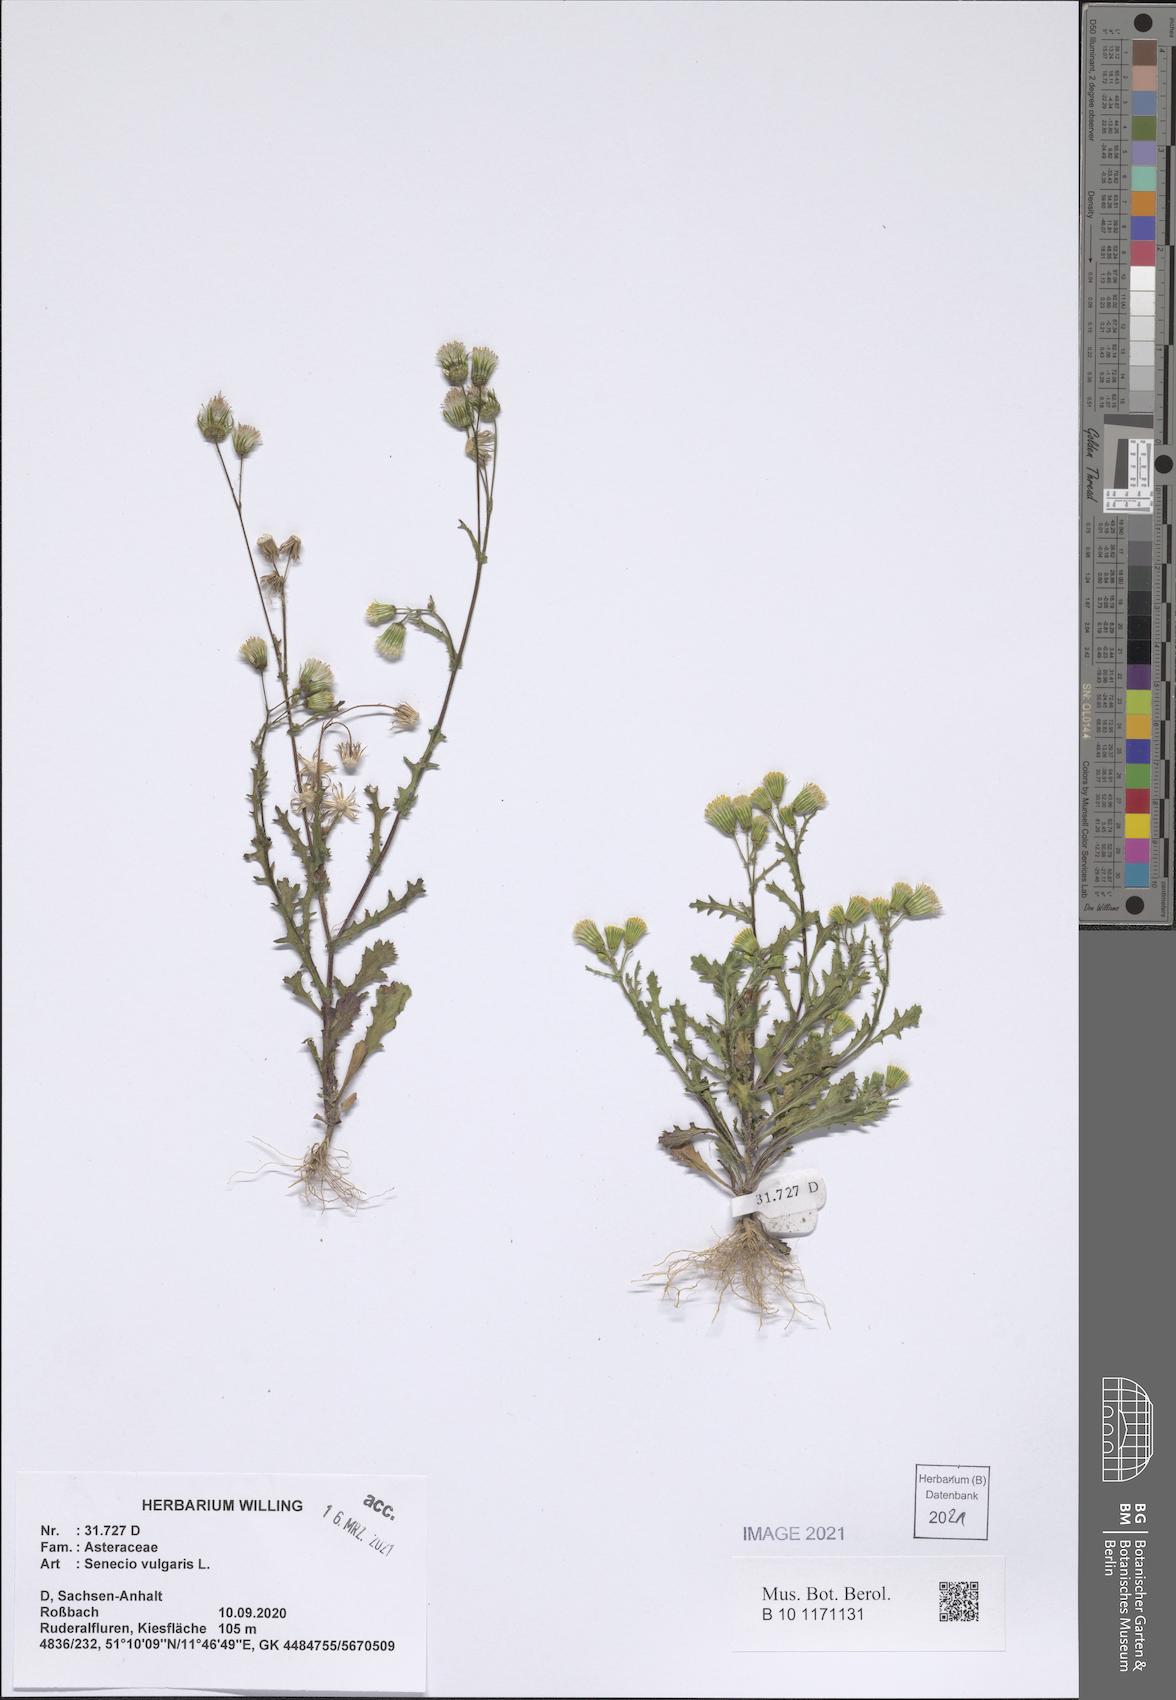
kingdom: Plantae
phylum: Tracheophyta
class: Magnoliopsida
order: Asterales
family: Asteraceae
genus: Senecio
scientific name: Senecio vulgaris
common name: Old-man-in-the-spring
